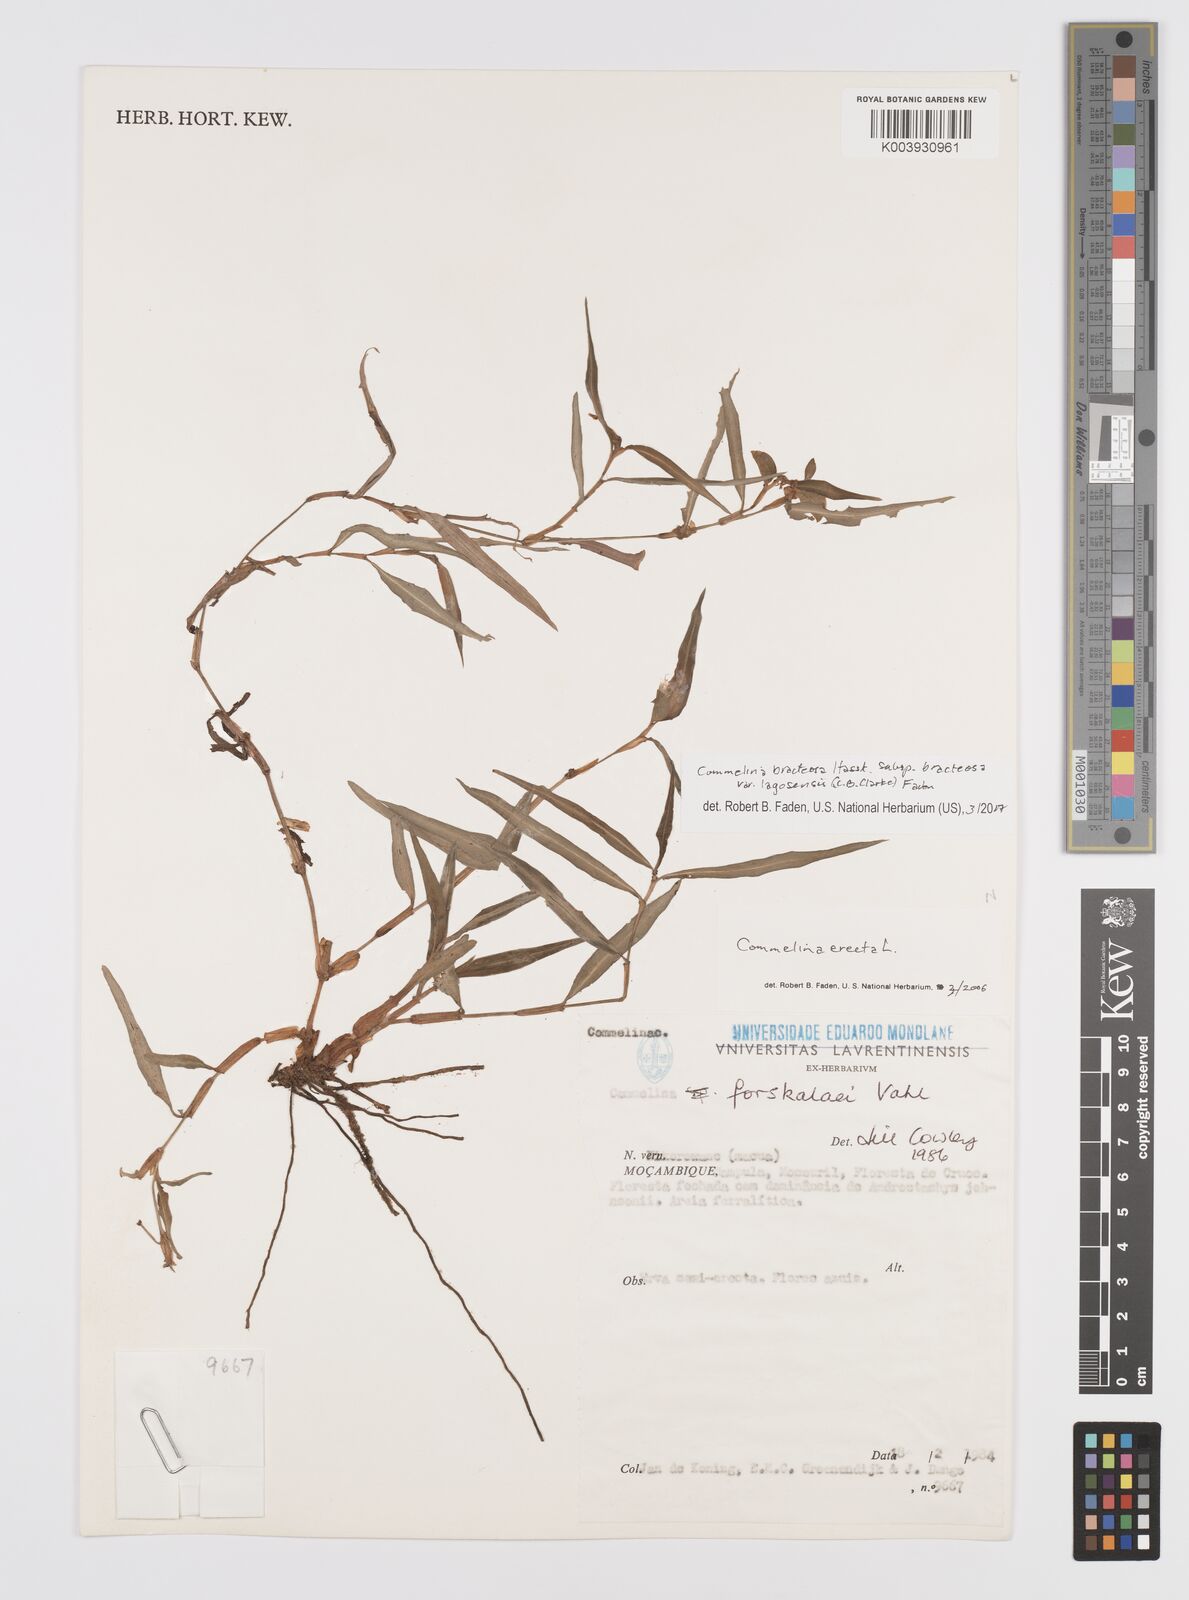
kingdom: Plantae
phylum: Tracheophyta
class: Liliopsida
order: Commelinales
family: Commelinaceae
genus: Commelina
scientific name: Commelina bracteosa
